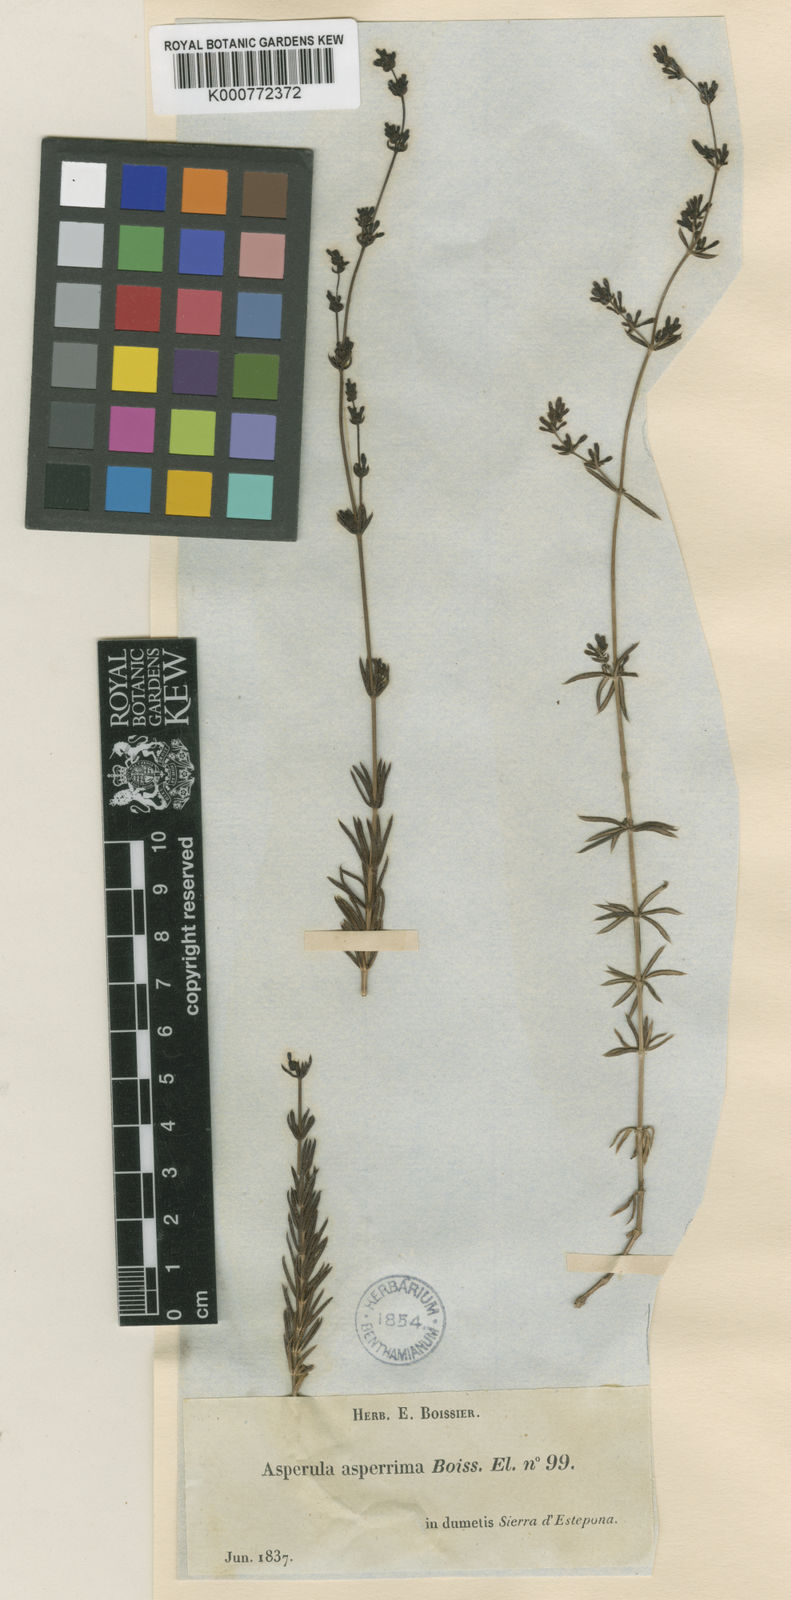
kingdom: Plantae
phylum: Tracheophyta
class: Magnoliopsida
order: Gentianales
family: Rubiaceae
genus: Galium
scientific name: Galium
